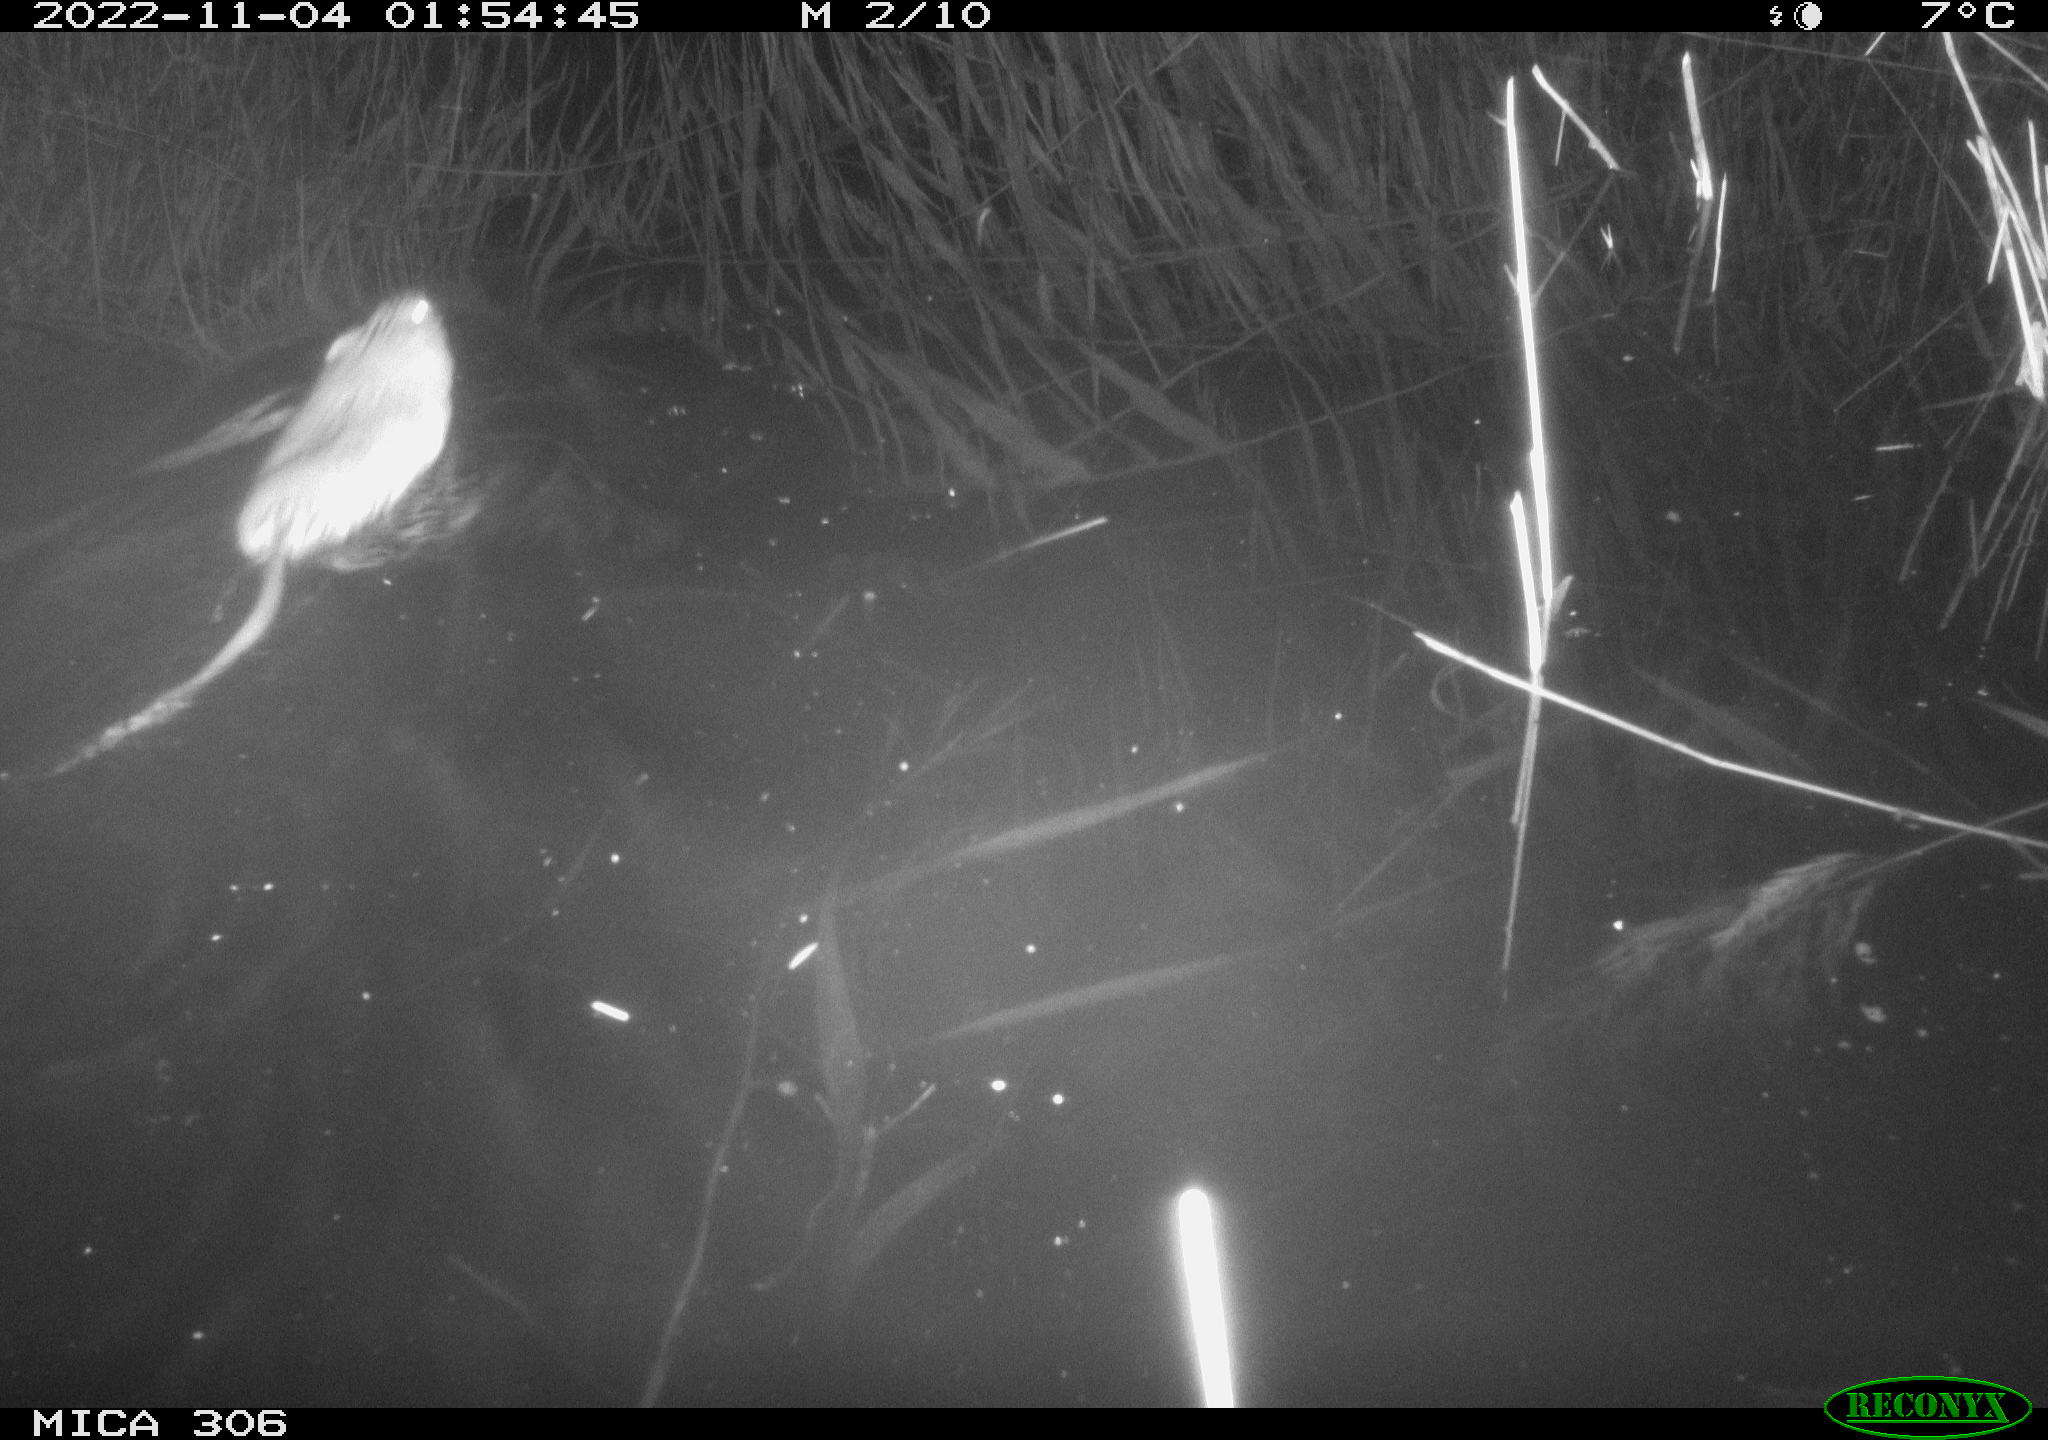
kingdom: Animalia
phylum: Chordata
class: Mammalia
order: Rodentia
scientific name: Rodentia
